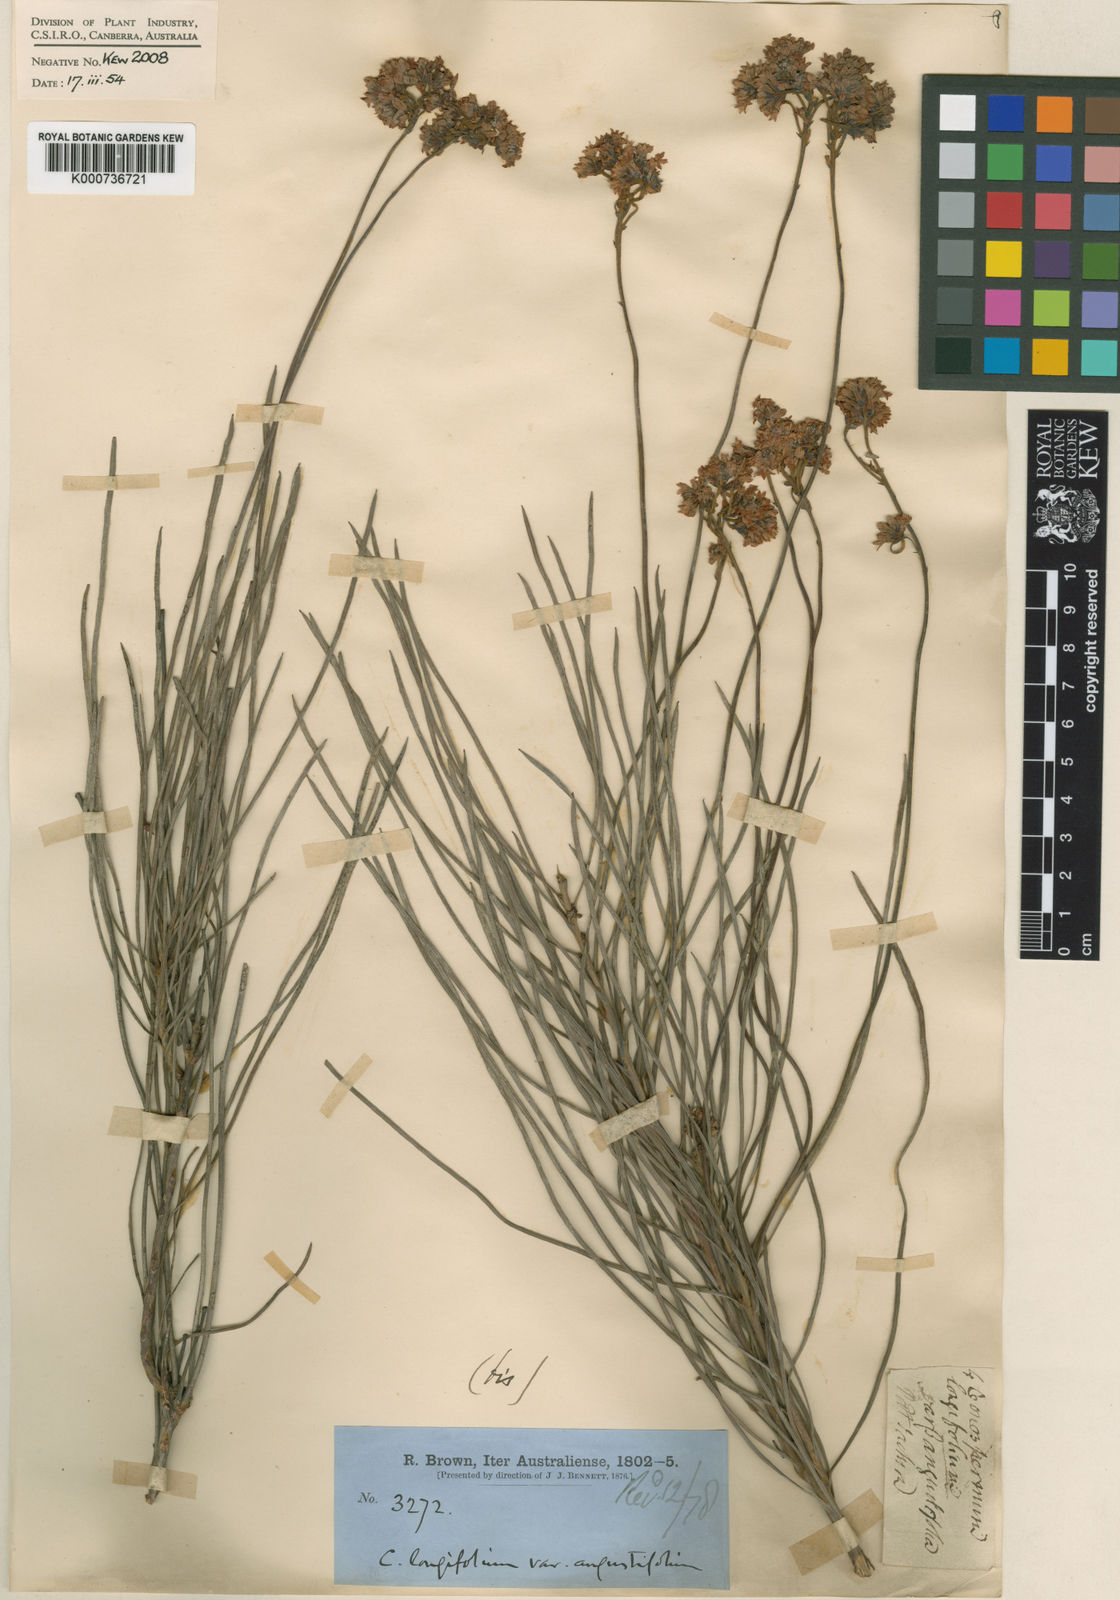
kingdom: Plantae
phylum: Tracheophyta
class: Magnoliopsida
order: Proteales
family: Proteaceae
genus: Conospermum
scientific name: Conospermum longifolium
